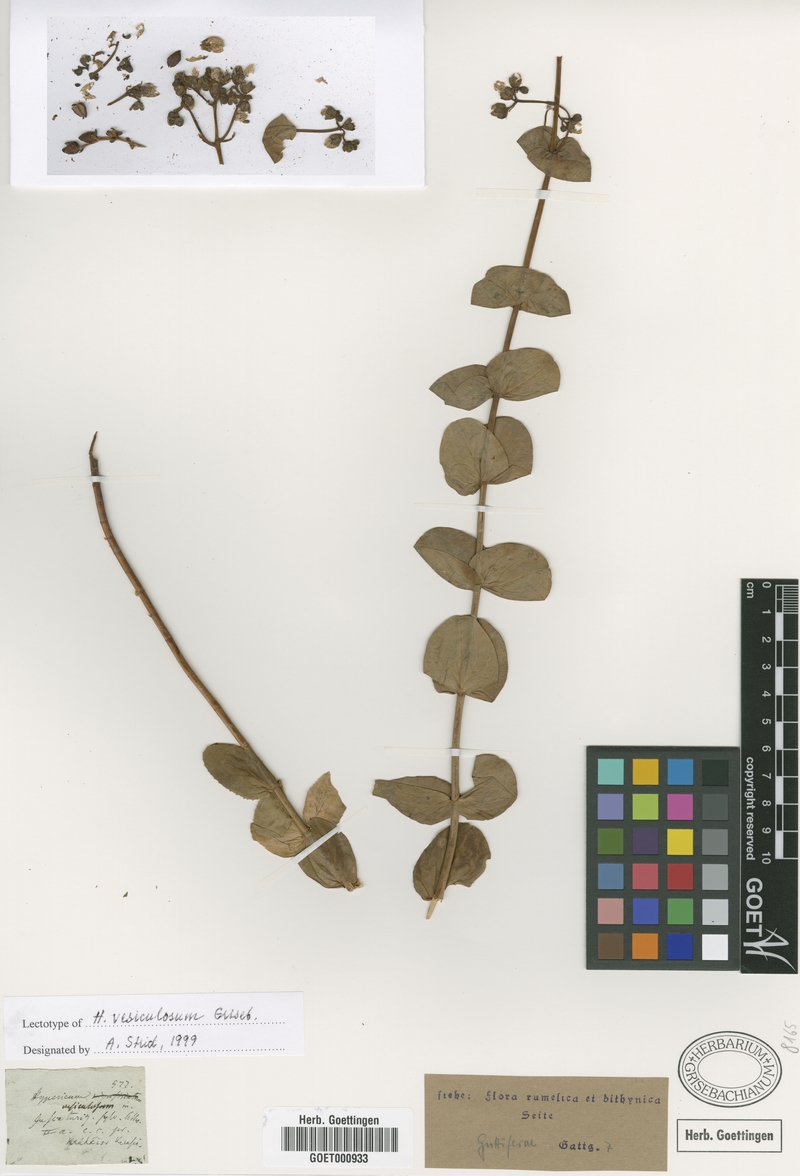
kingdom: Plantae
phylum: Tracheophyta
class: Magnoliopsida
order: Malpighiales
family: Hypericaceae
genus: Hypericum
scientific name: Hypericum vesiculosum
